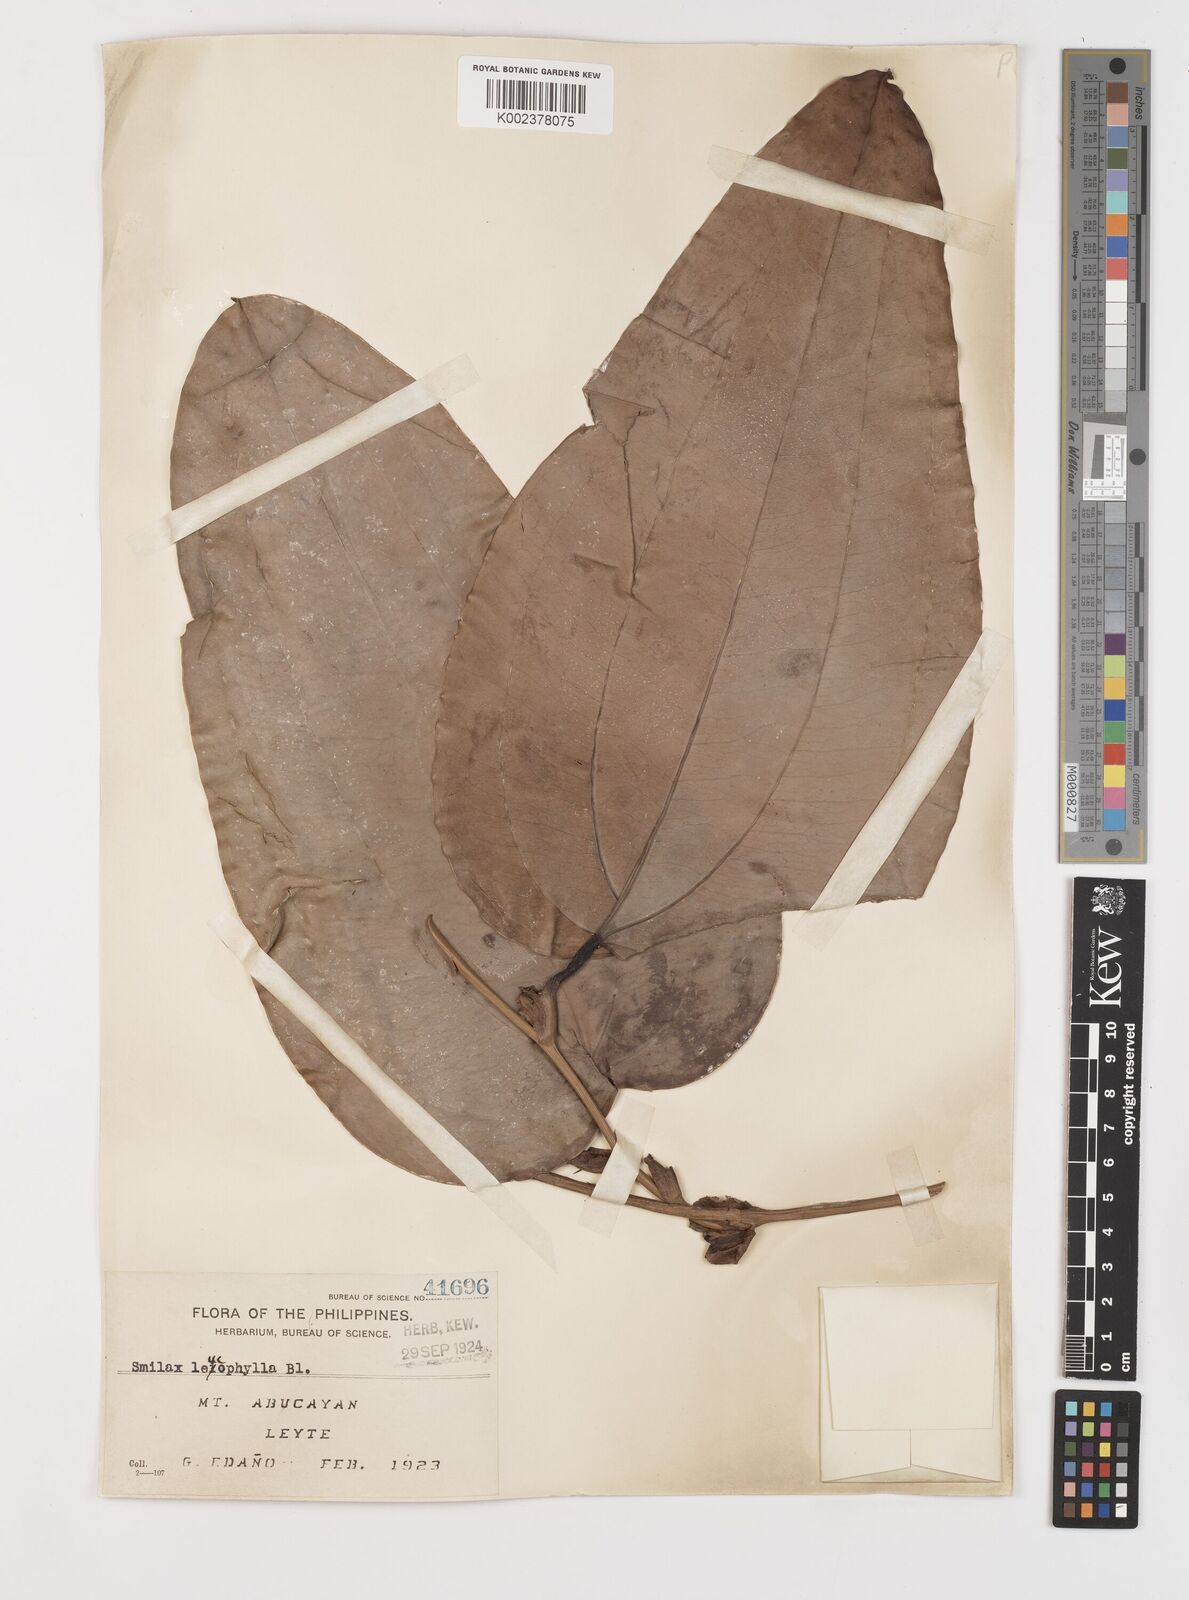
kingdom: Plantae
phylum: Tracheophyta
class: Liliopsida
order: Liliales
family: Smilacaceae
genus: Smilax
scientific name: Smilax leucophylla
